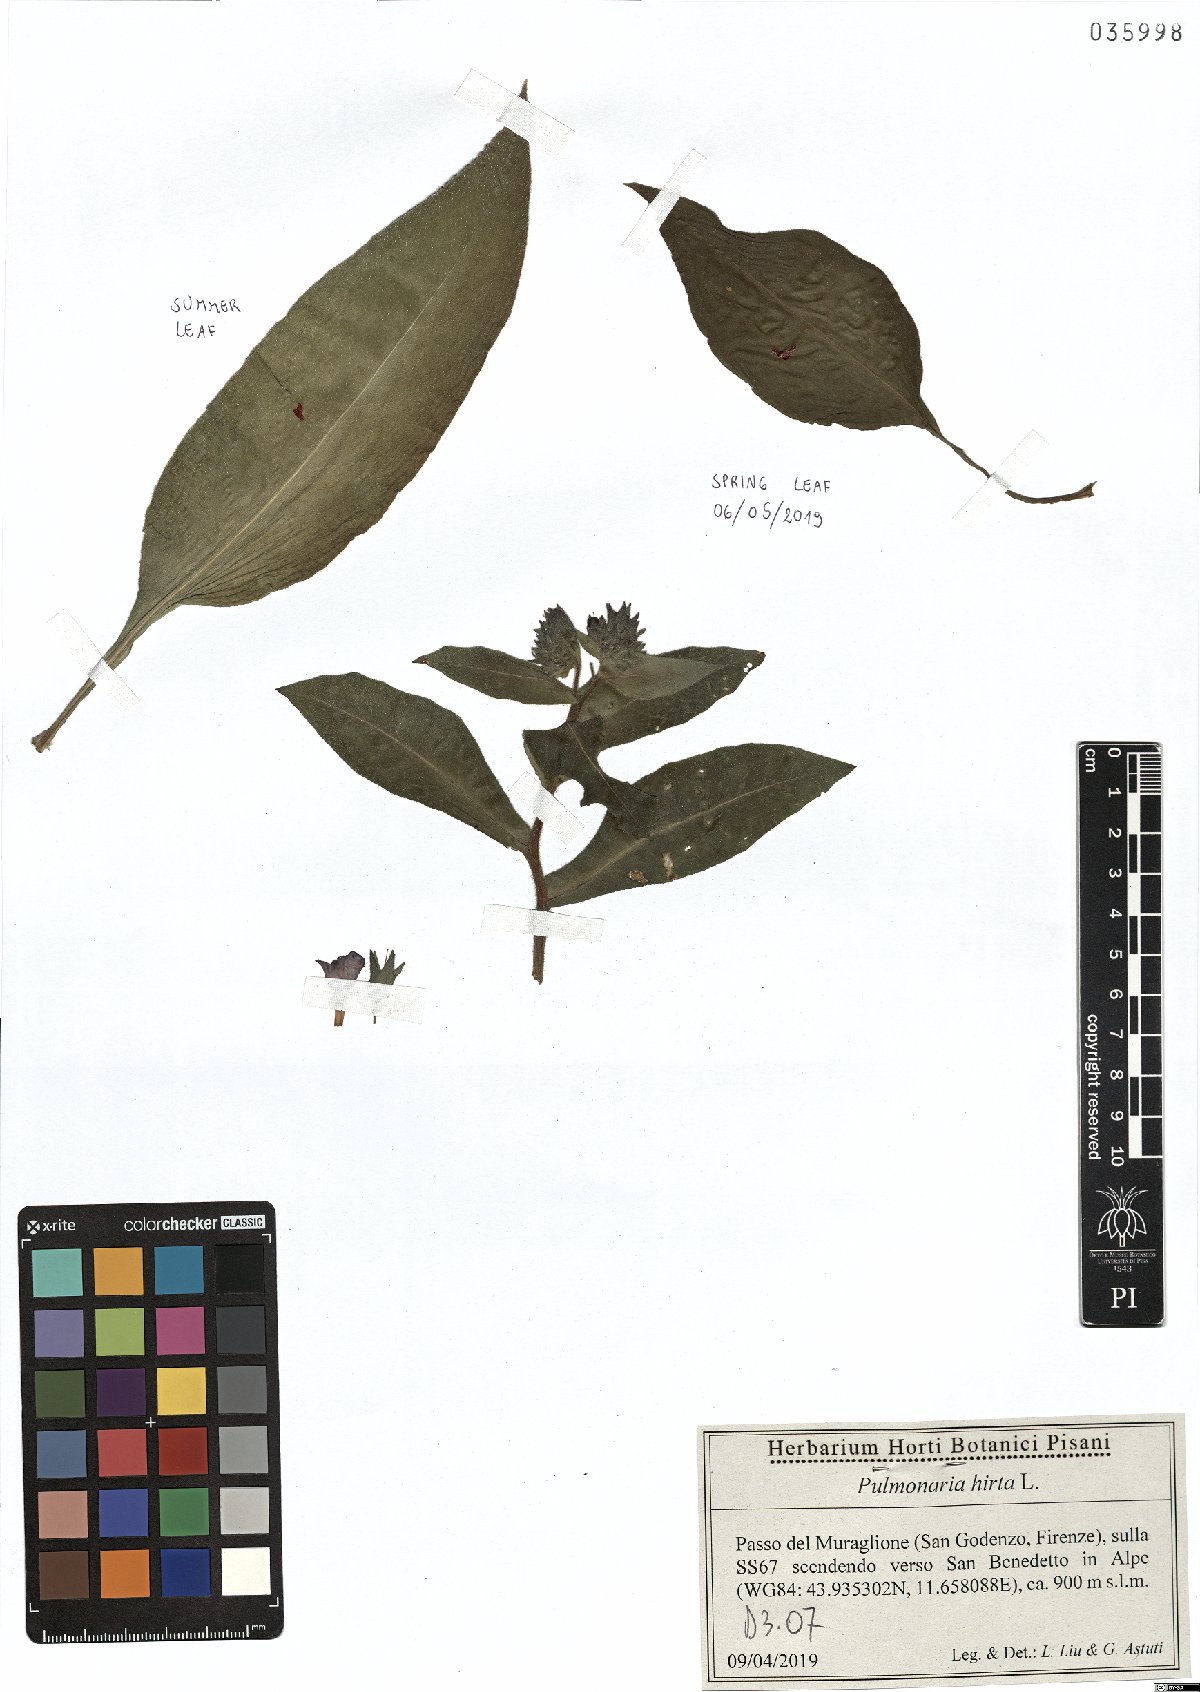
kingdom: Plantae
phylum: Tracheophyta
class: Magnoliopsida
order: Boraginales
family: Boraginaceae
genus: Pulmonaria
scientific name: Pulmonaria hirta
